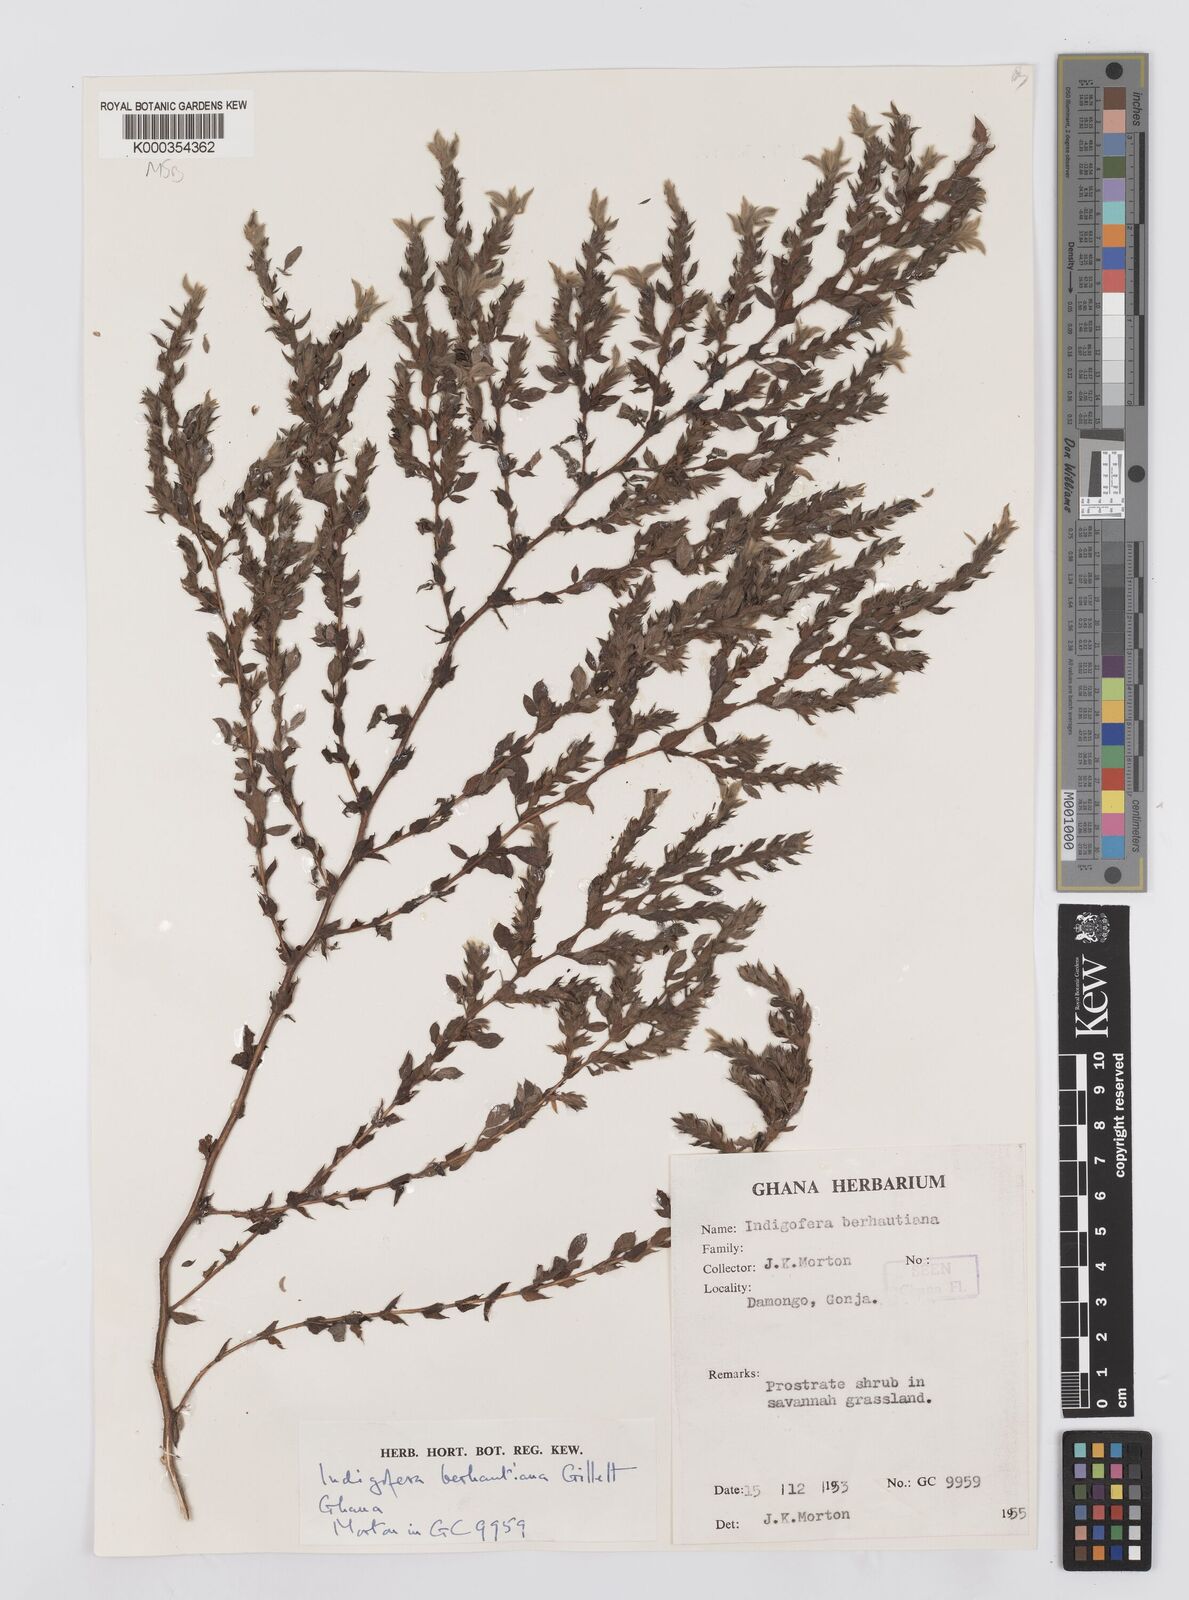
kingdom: Plantae
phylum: Tracheophyta
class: Magnoliopsida
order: Fabales
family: Fabaceae
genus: Indigofera
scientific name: Indigofera berhautiana
